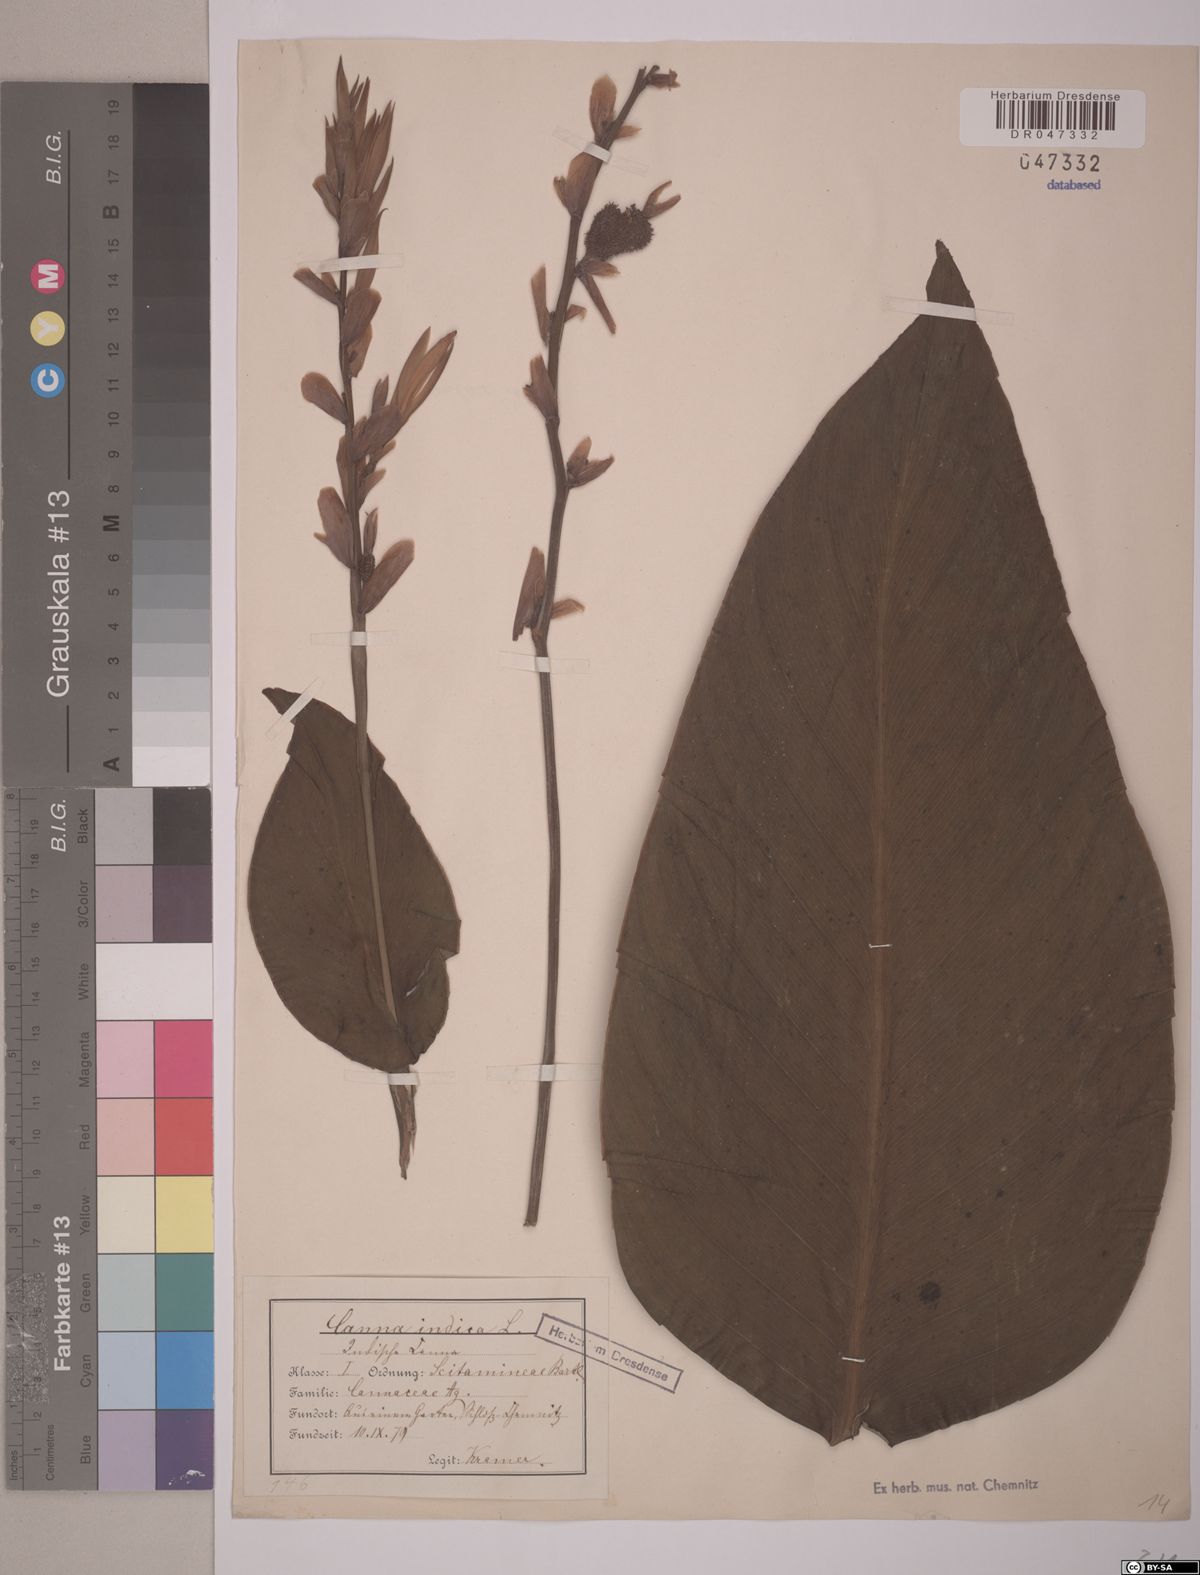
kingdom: Plantae
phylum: Tracheophyta
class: Liliopsida
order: Zingiberales
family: Cannaceae
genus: Canna
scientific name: Canna indica
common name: Indian shot
